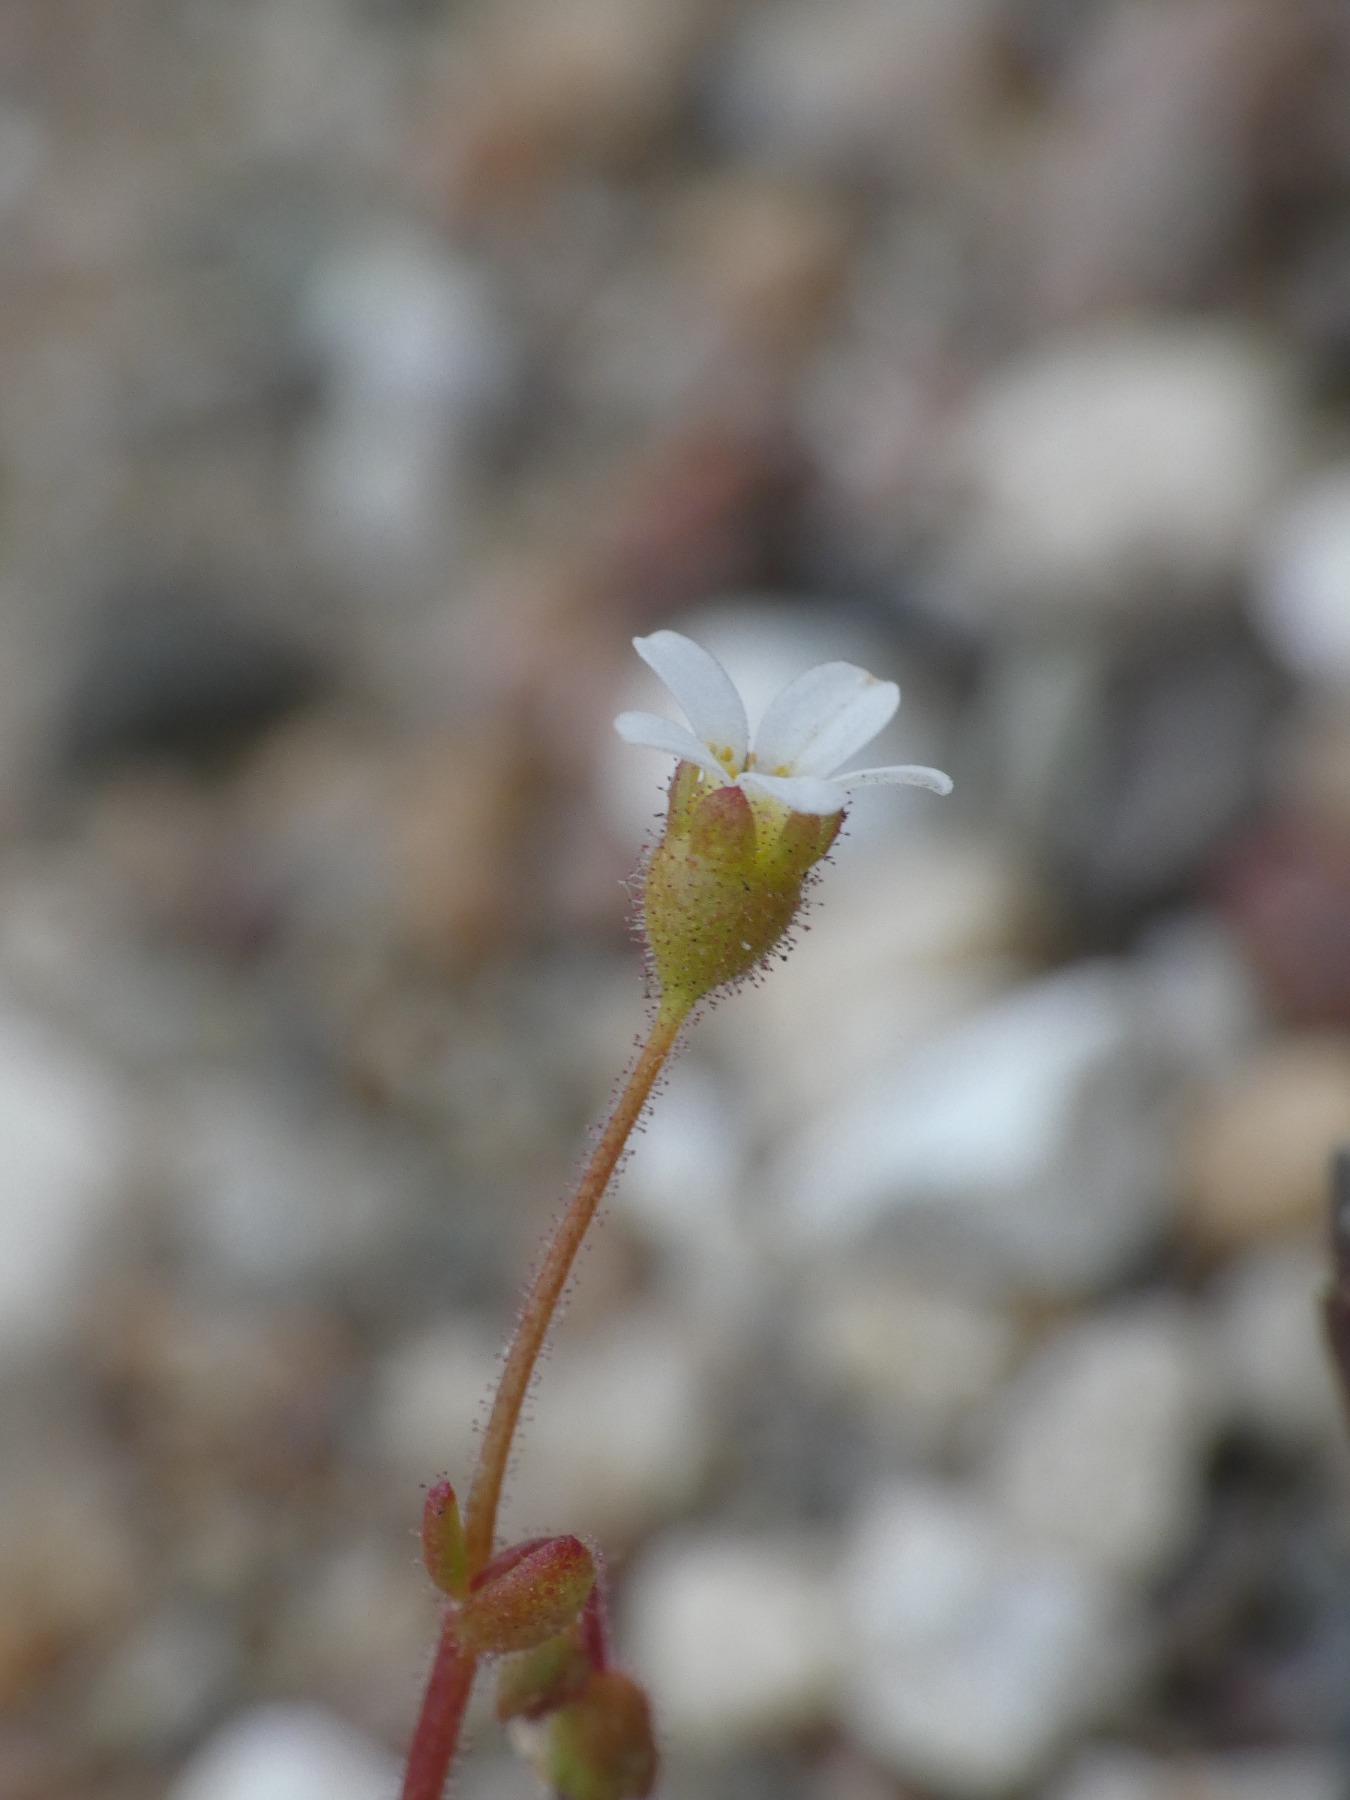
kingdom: Plantae
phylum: Tracheophyta
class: Magnoliopsida
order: Saxifragales
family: Saxifragaceae
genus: Saxifraga
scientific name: Saxifraga tridactylites
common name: Trekløft-stenbræk
